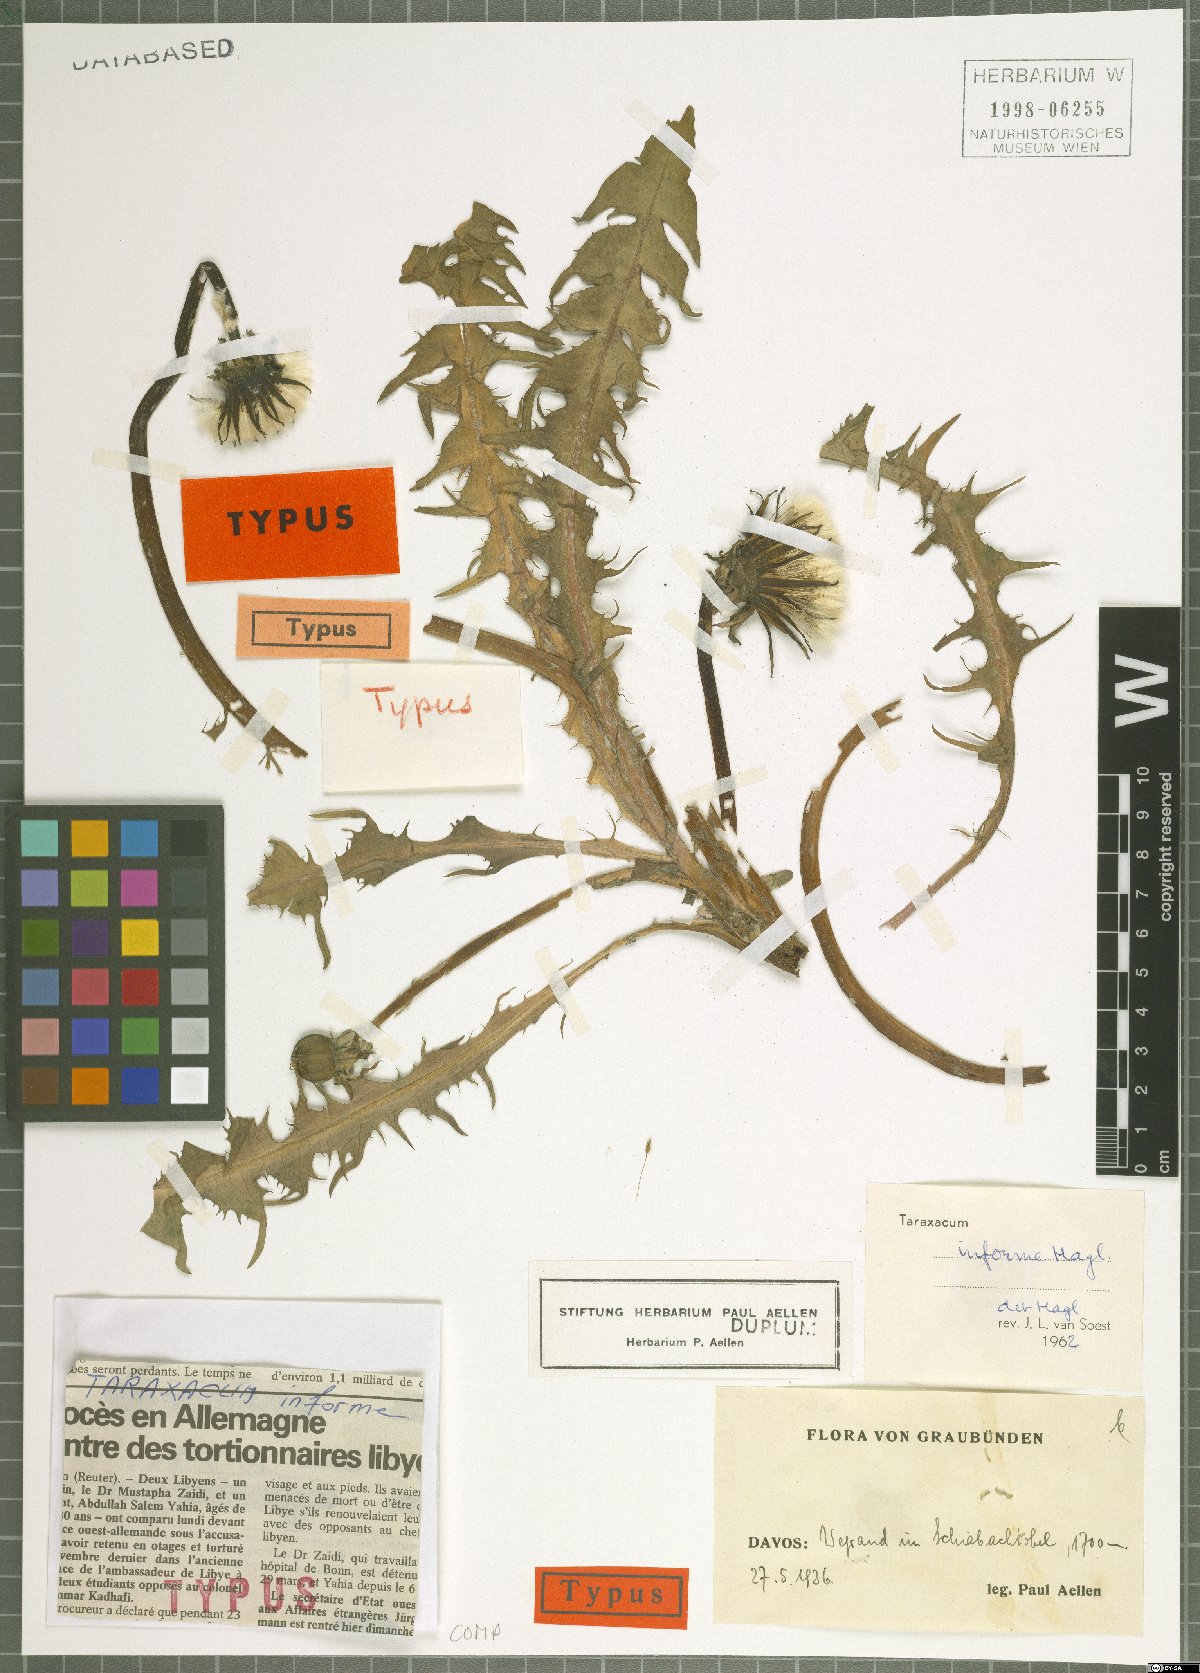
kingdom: Plantae
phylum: Tracheophyta
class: Magnoliopsida
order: Asterales
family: Asteraceae
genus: Taraxacum
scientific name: Taraxacum informe
